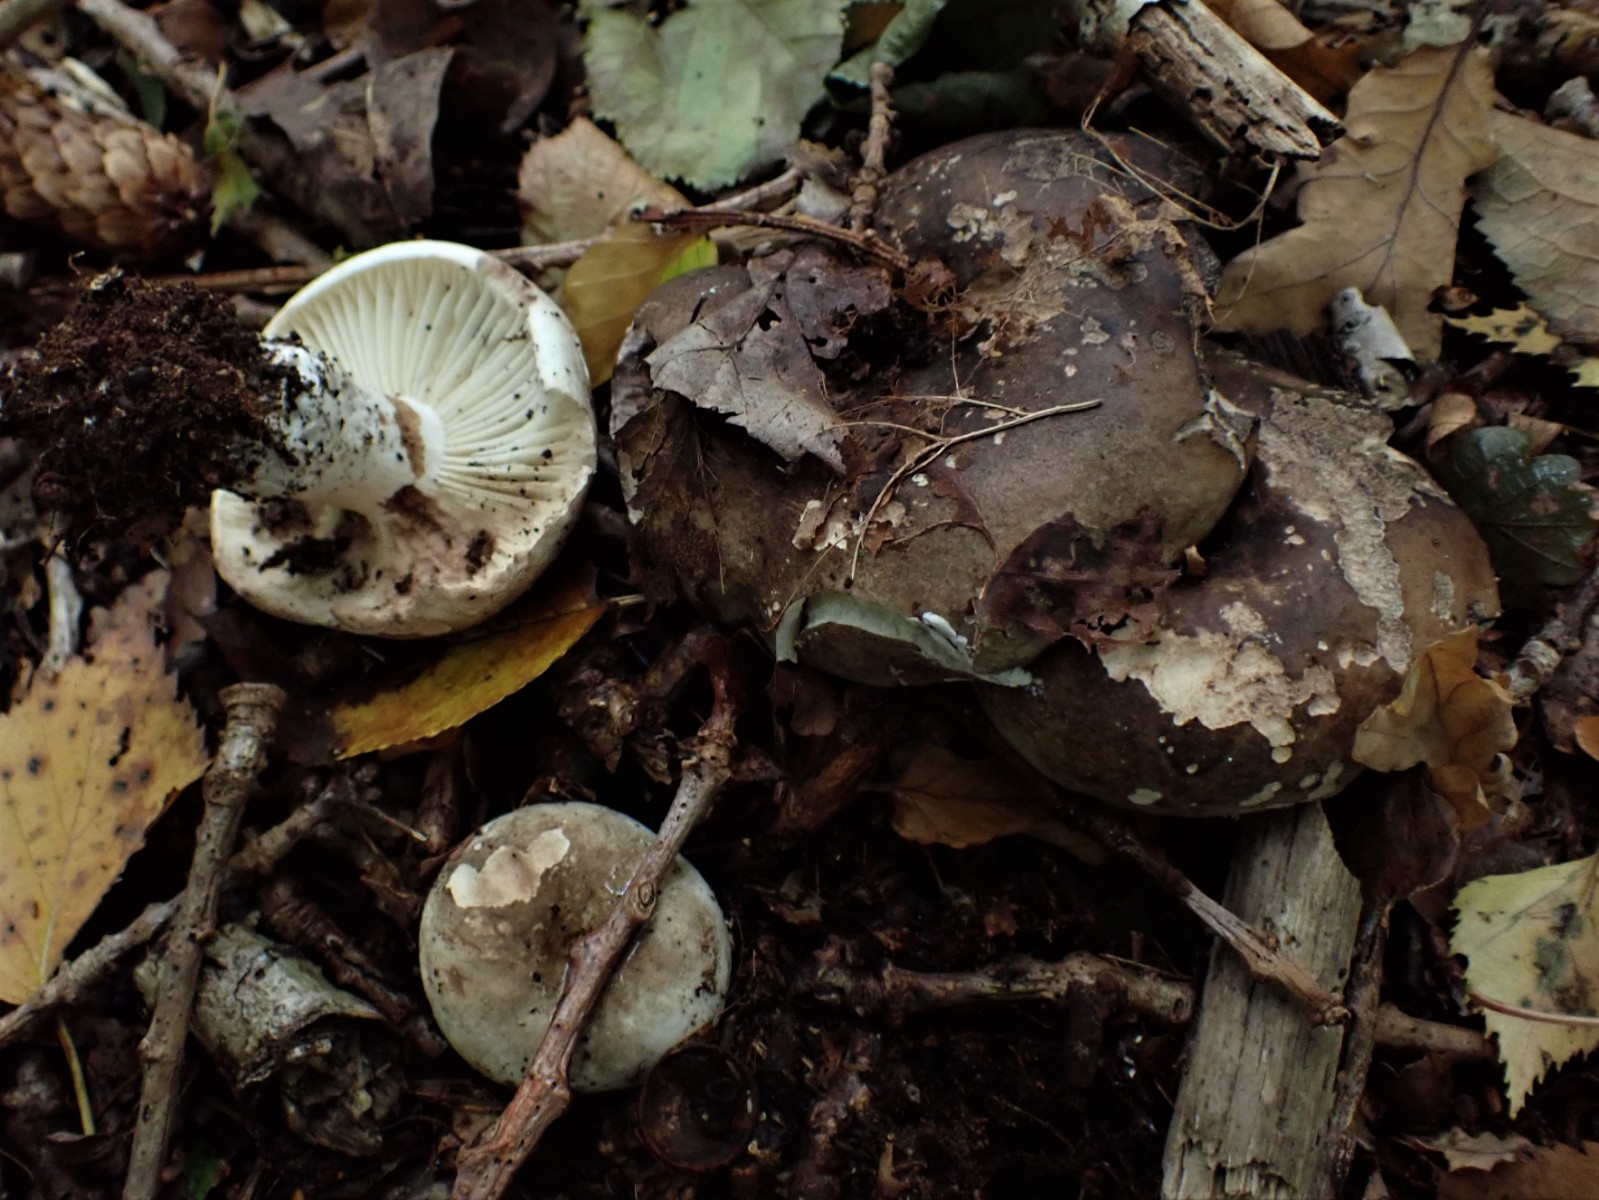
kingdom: Fungi
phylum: Basidiomycota
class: Agaricomycetes
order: Russulales
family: Russulaceae
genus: Russula
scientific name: Russula adusta
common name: sværtende skørhat
